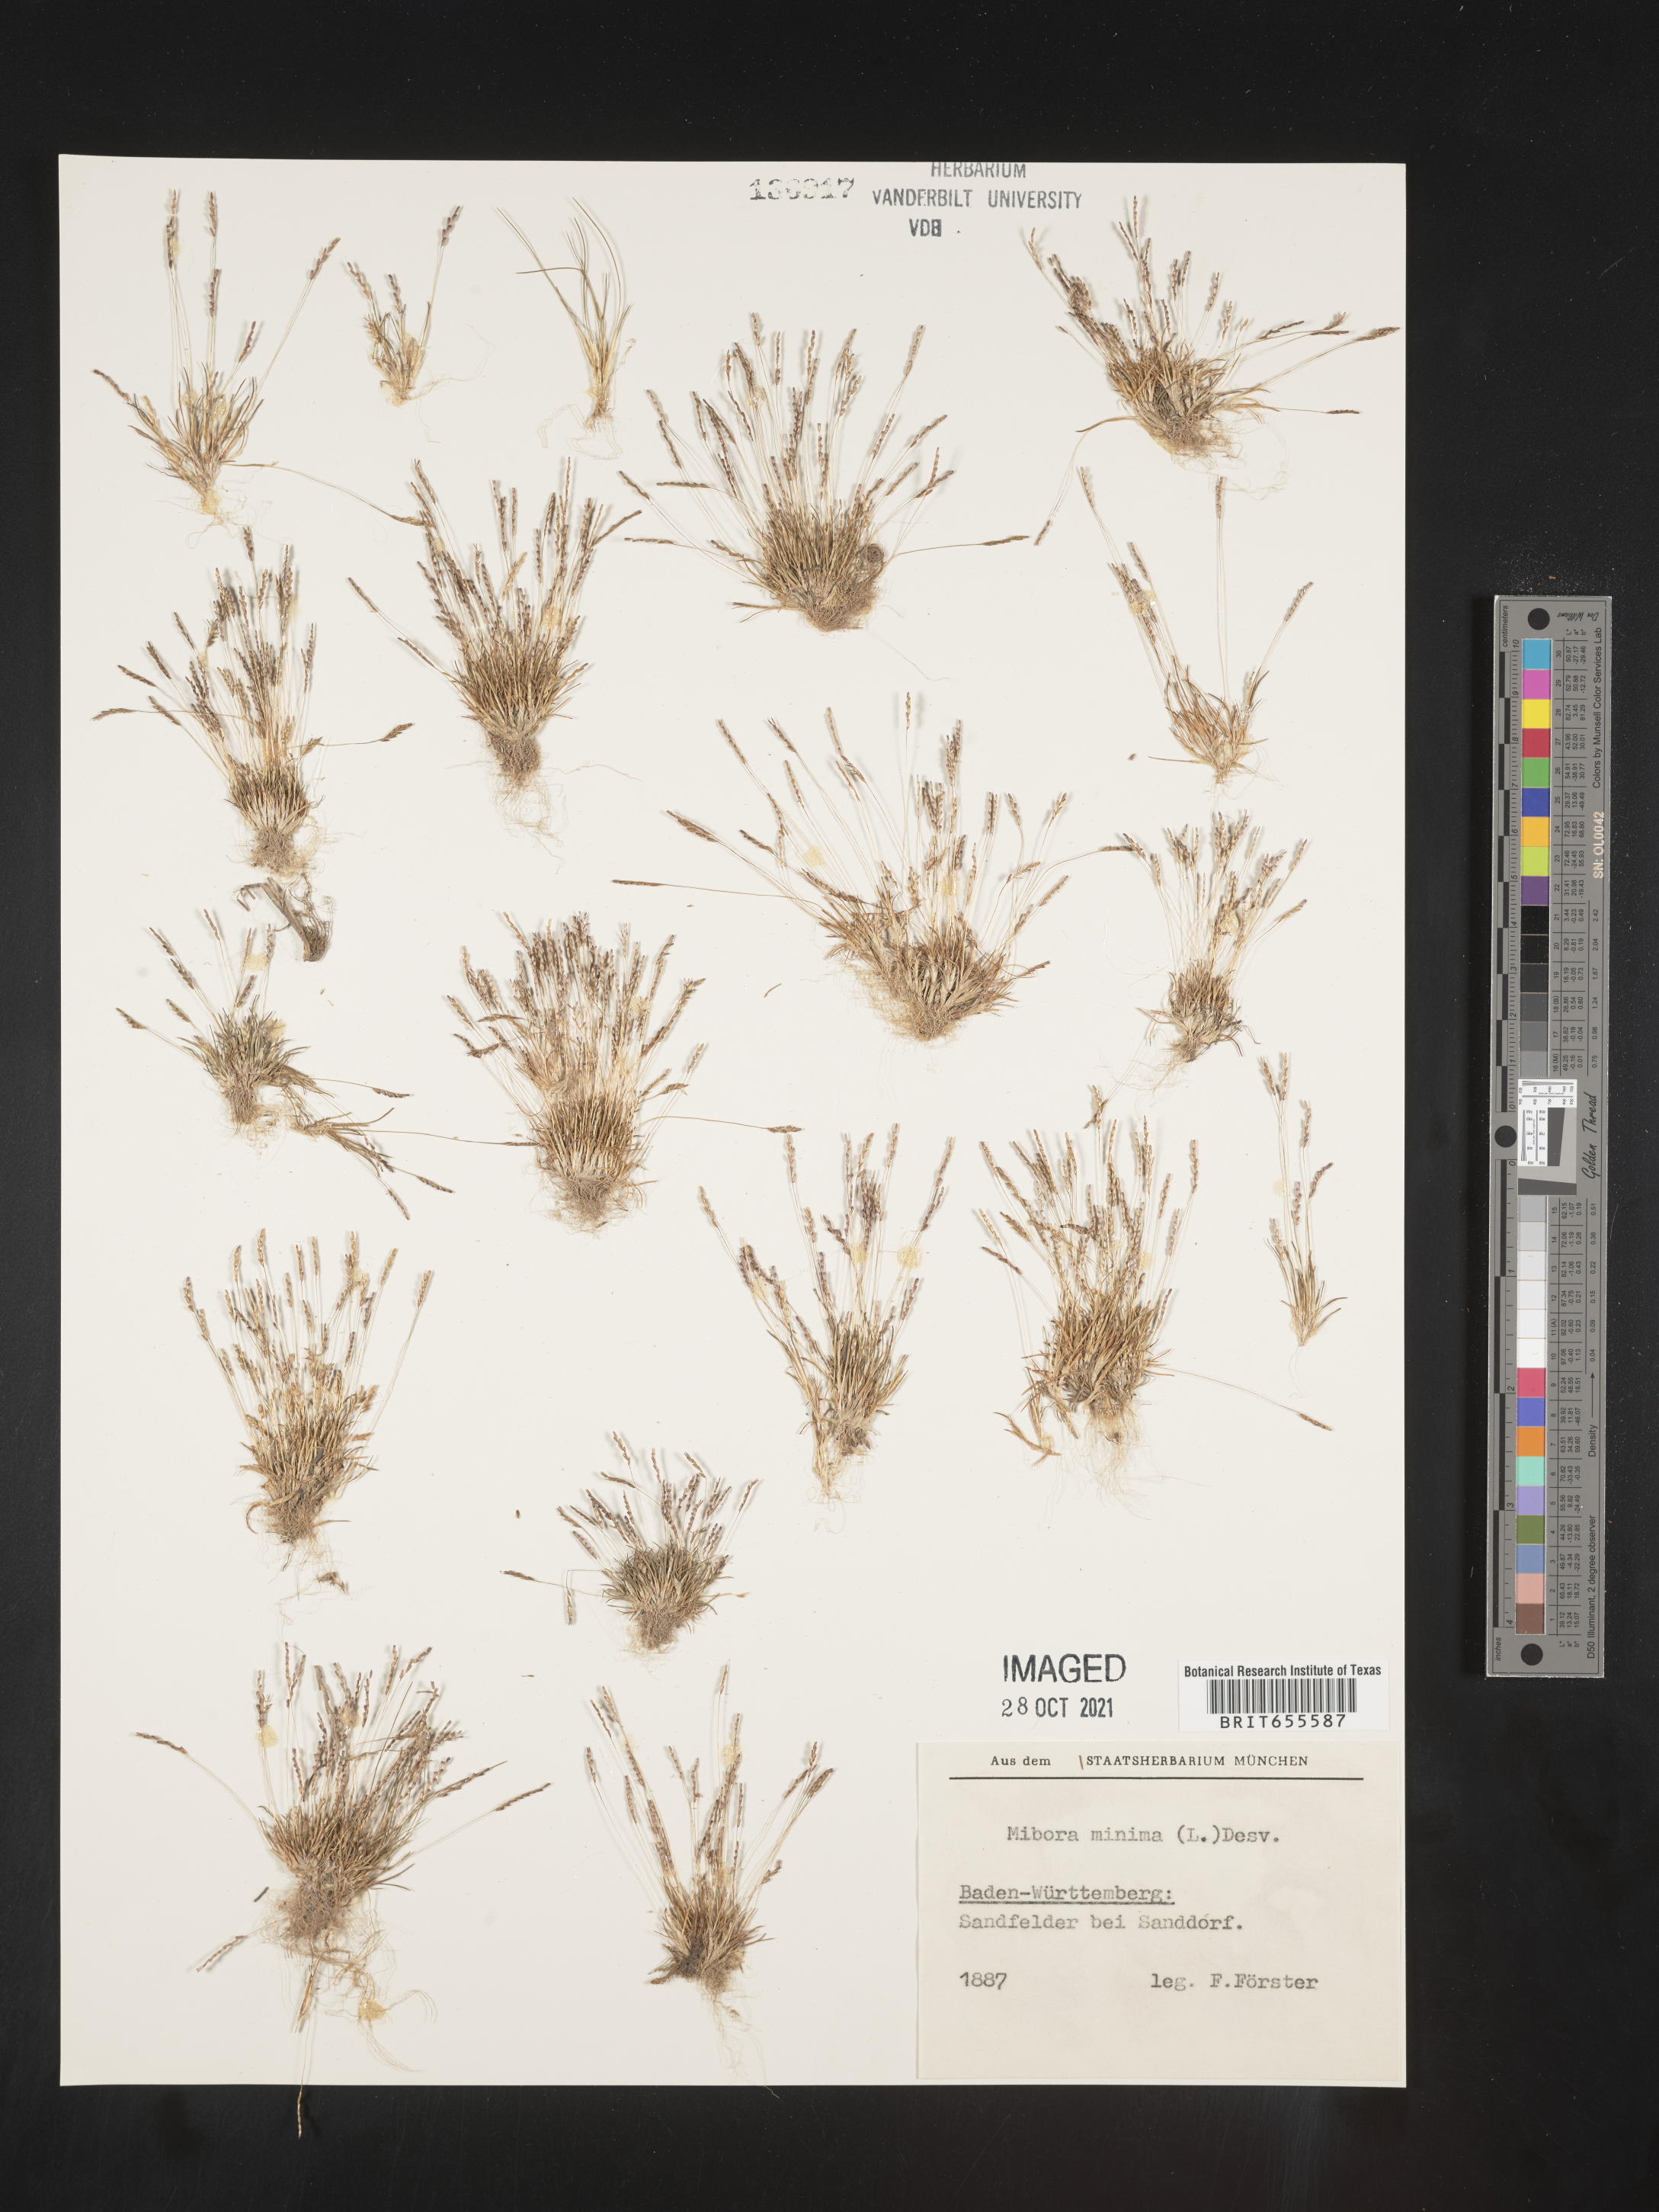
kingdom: Plantae
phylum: Tracheophyta
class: Liliopsida
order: Poales
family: Poaceae
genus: Mibora
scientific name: Mibora
